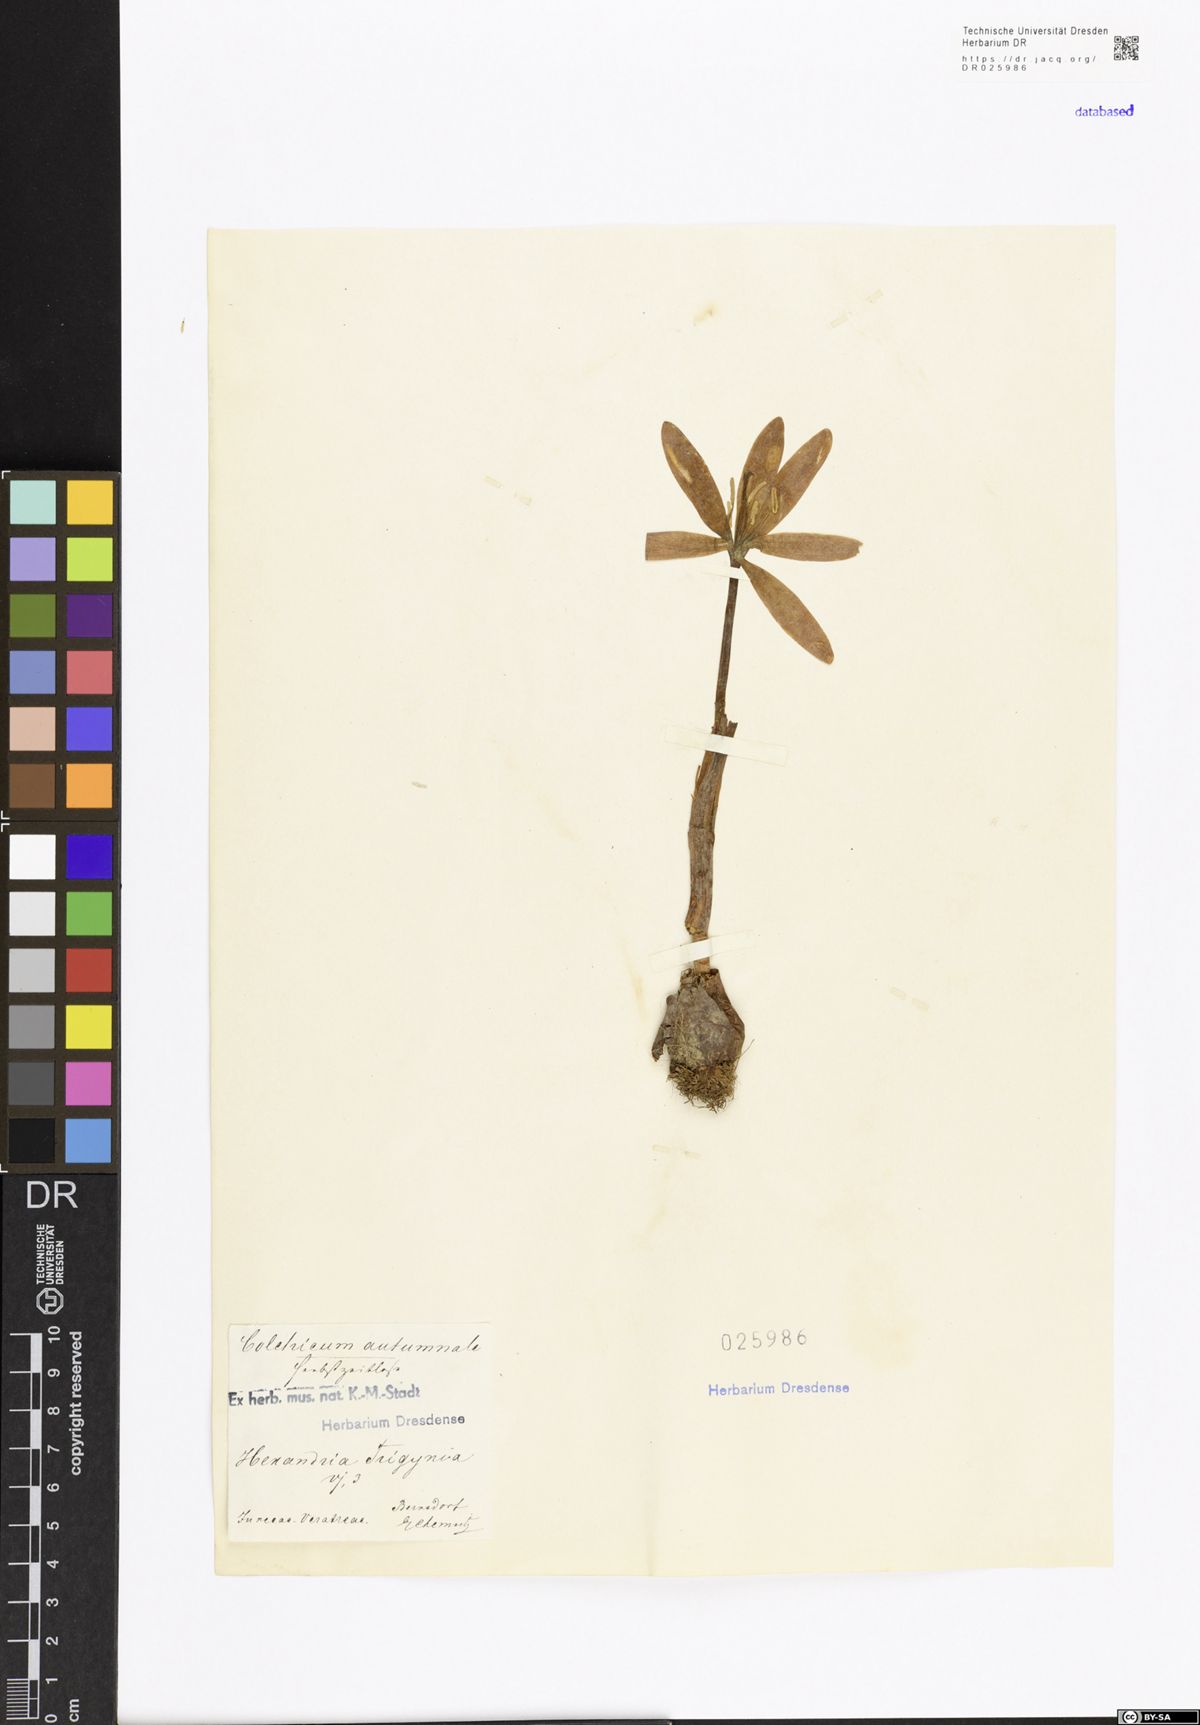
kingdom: Plantae
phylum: Tracheophyta
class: Liliopsida
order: Liliales
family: Colchicaceae
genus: Colchicum
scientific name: Colchicum autumnale
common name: Autumn crocus
